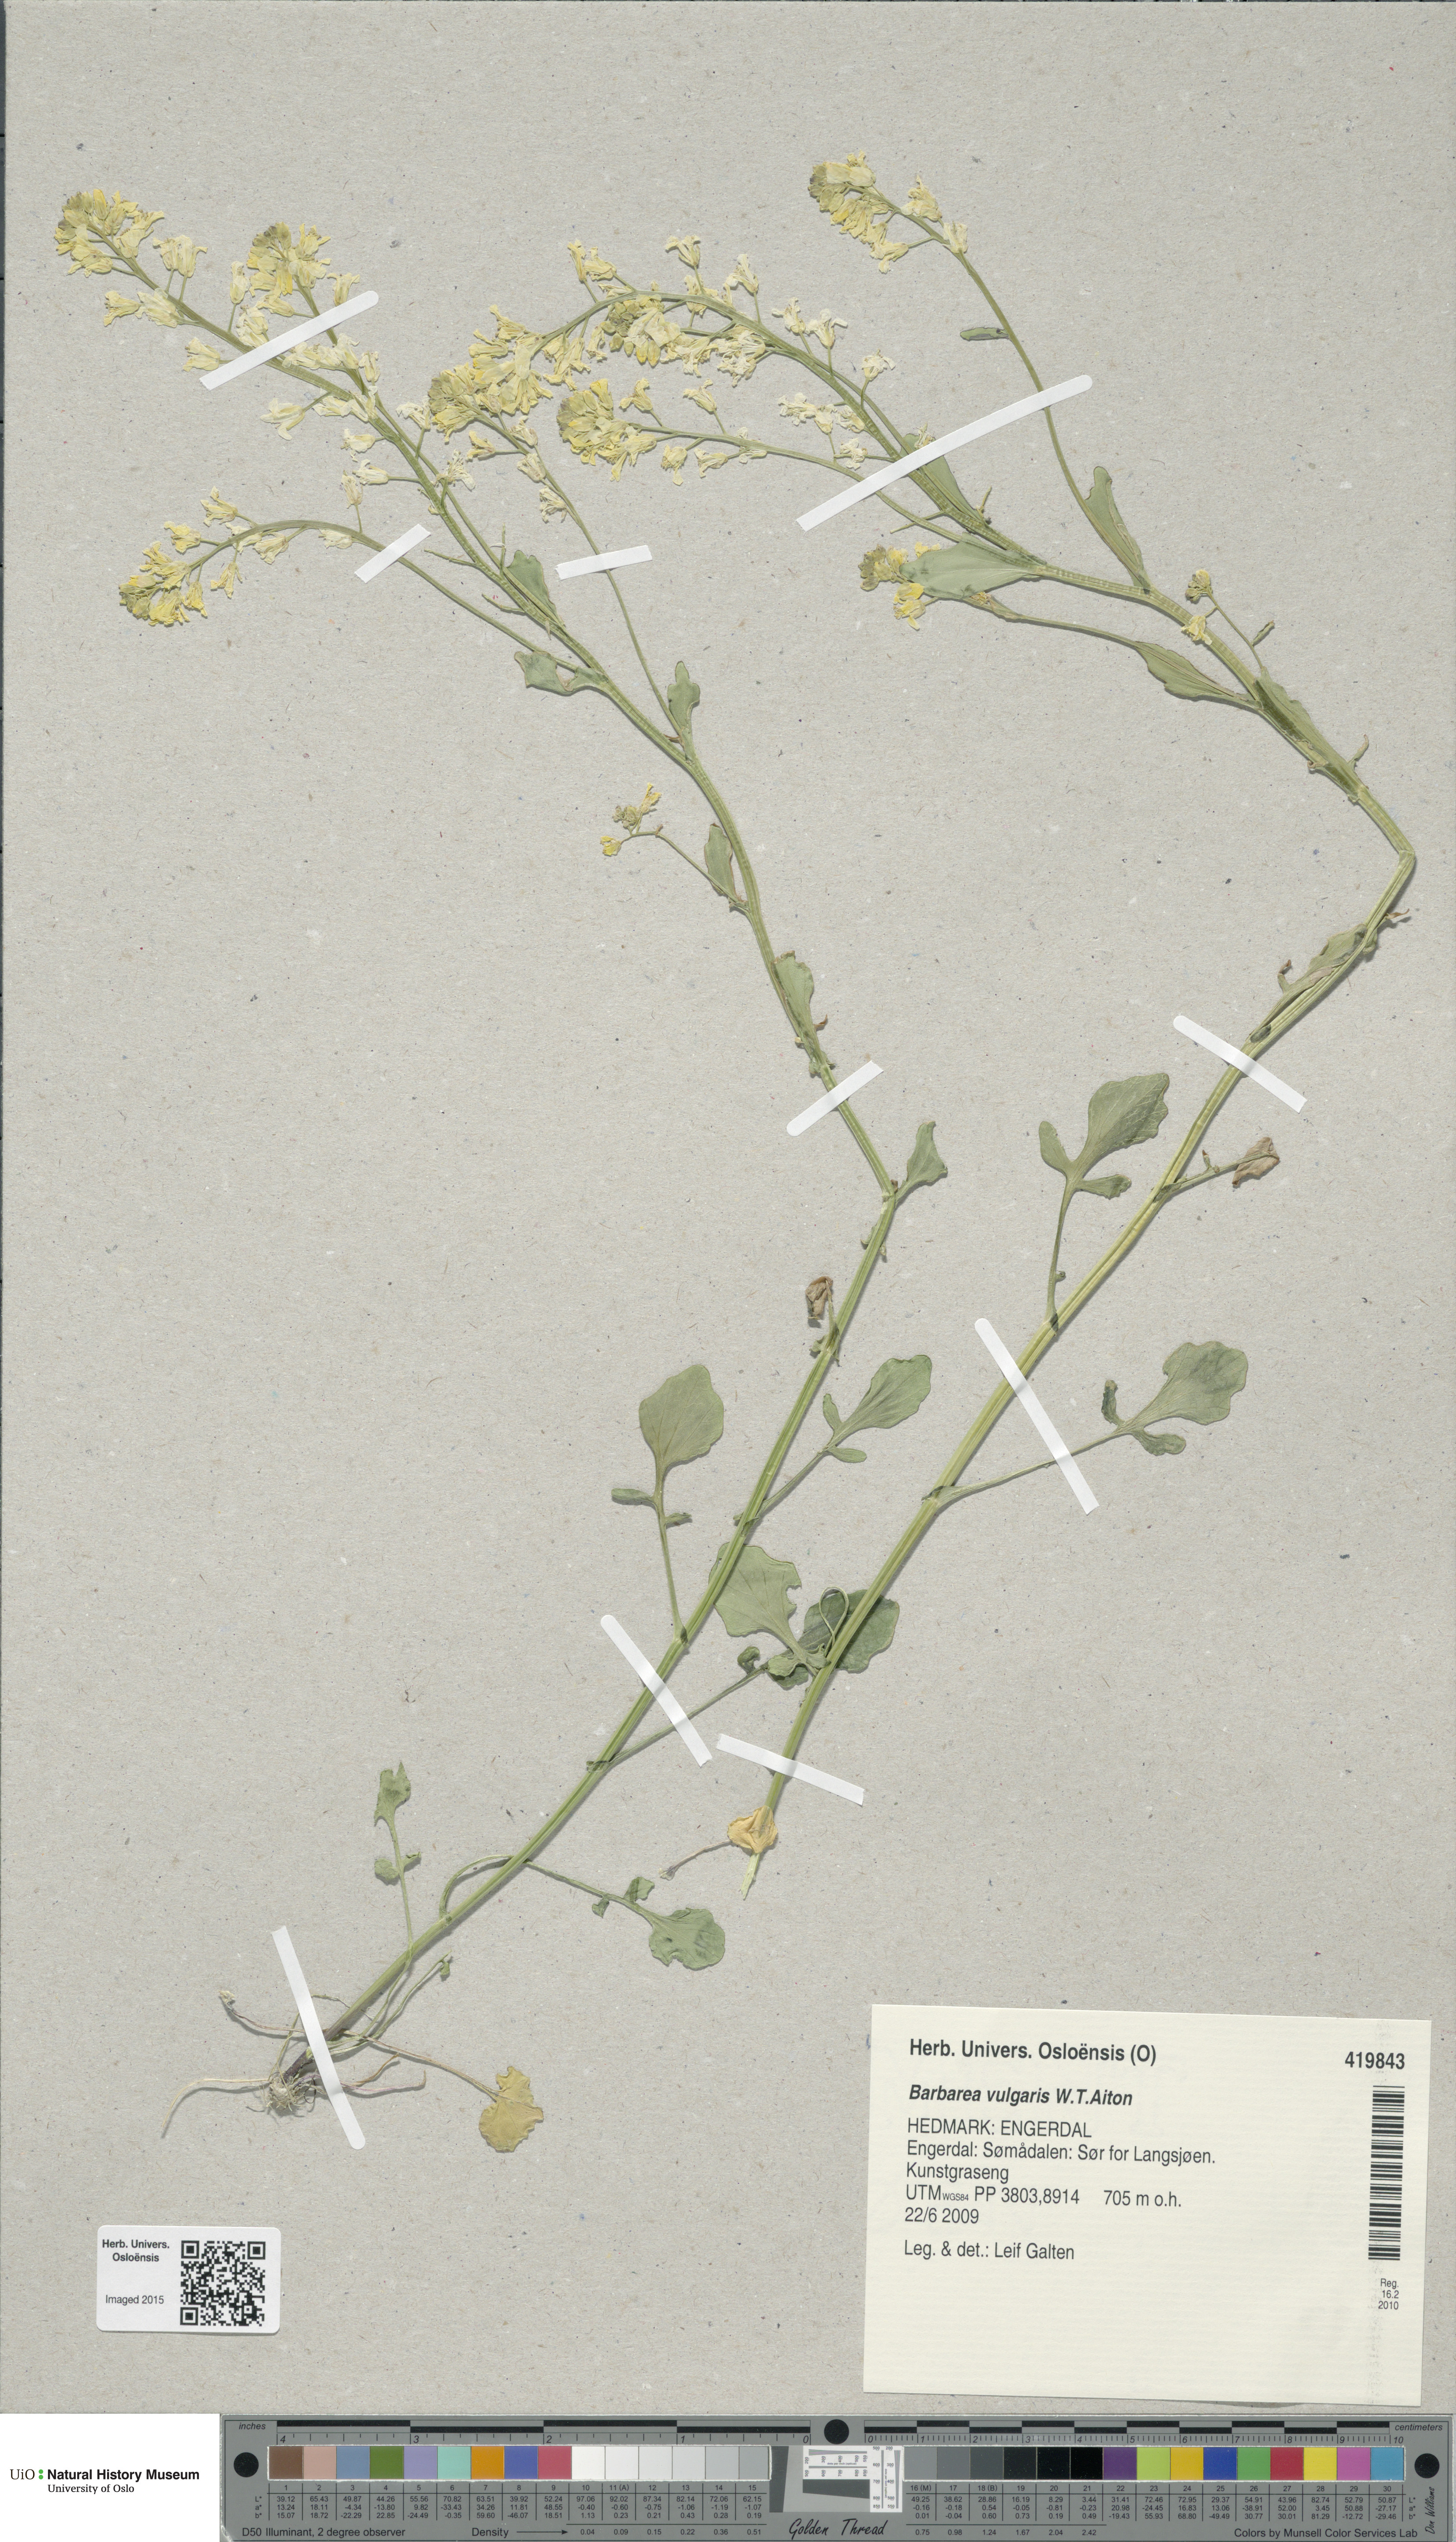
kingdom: Plantae
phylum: Tracheophyta
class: Magnoliopsida
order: Brassicales
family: Brassicaceae
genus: Barbarea
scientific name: Barbarea vulgaris
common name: Cressy-greens
